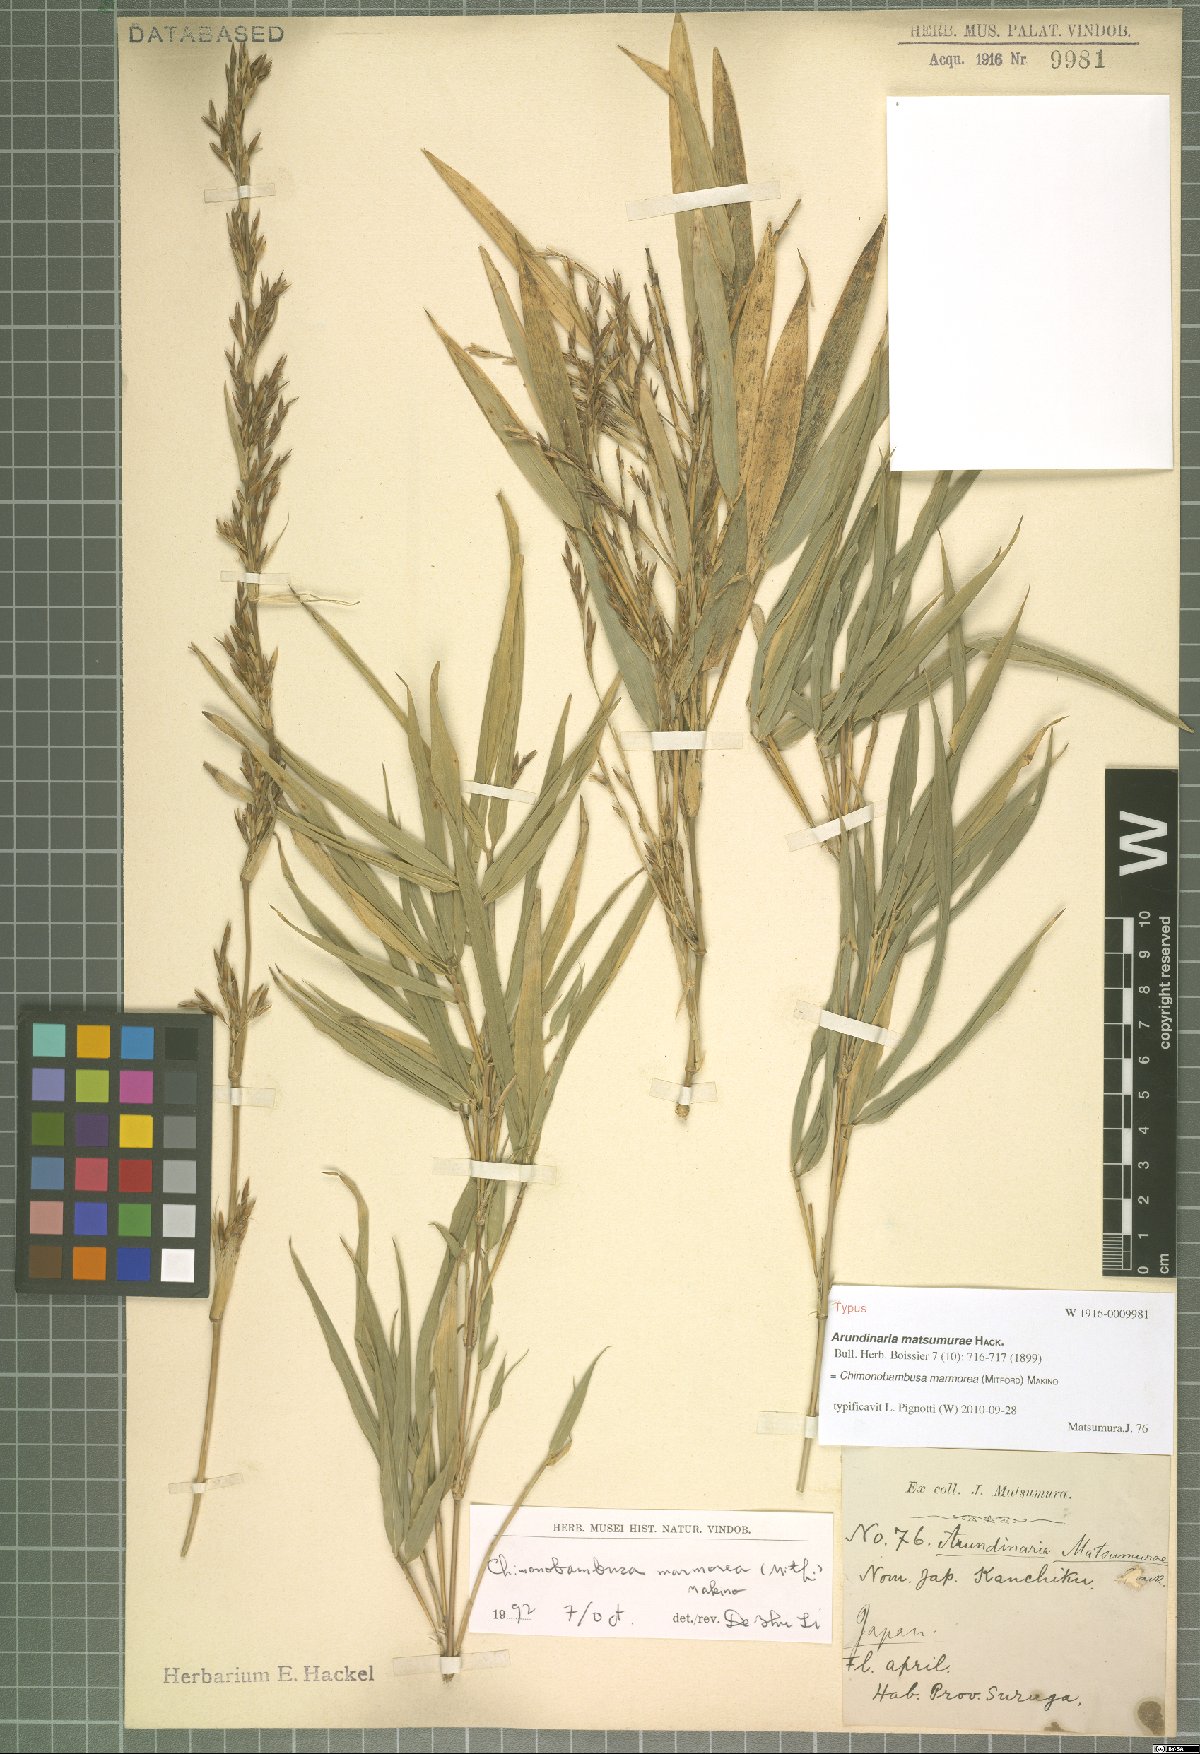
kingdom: Plantae
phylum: Tracheophyta
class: Liliopsida
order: Poales
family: Poaceae
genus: Chimonobambusa
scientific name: Chimonobambusa marmorea
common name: Marbled bamboo
